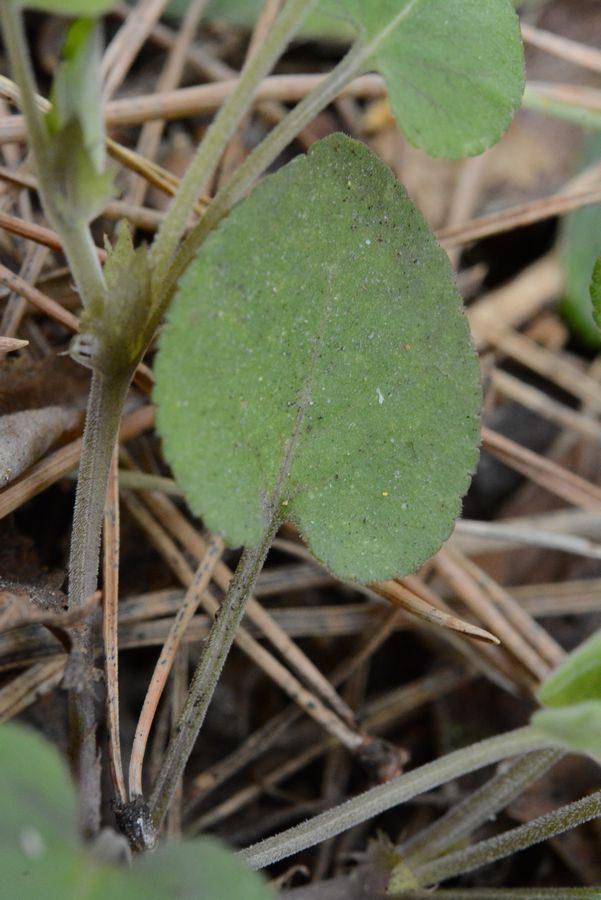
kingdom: Plantae
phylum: Tracheophyta
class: Magnoliopsida
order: Malpighiales
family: Violaceae
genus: Viola
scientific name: Viola rupestris
